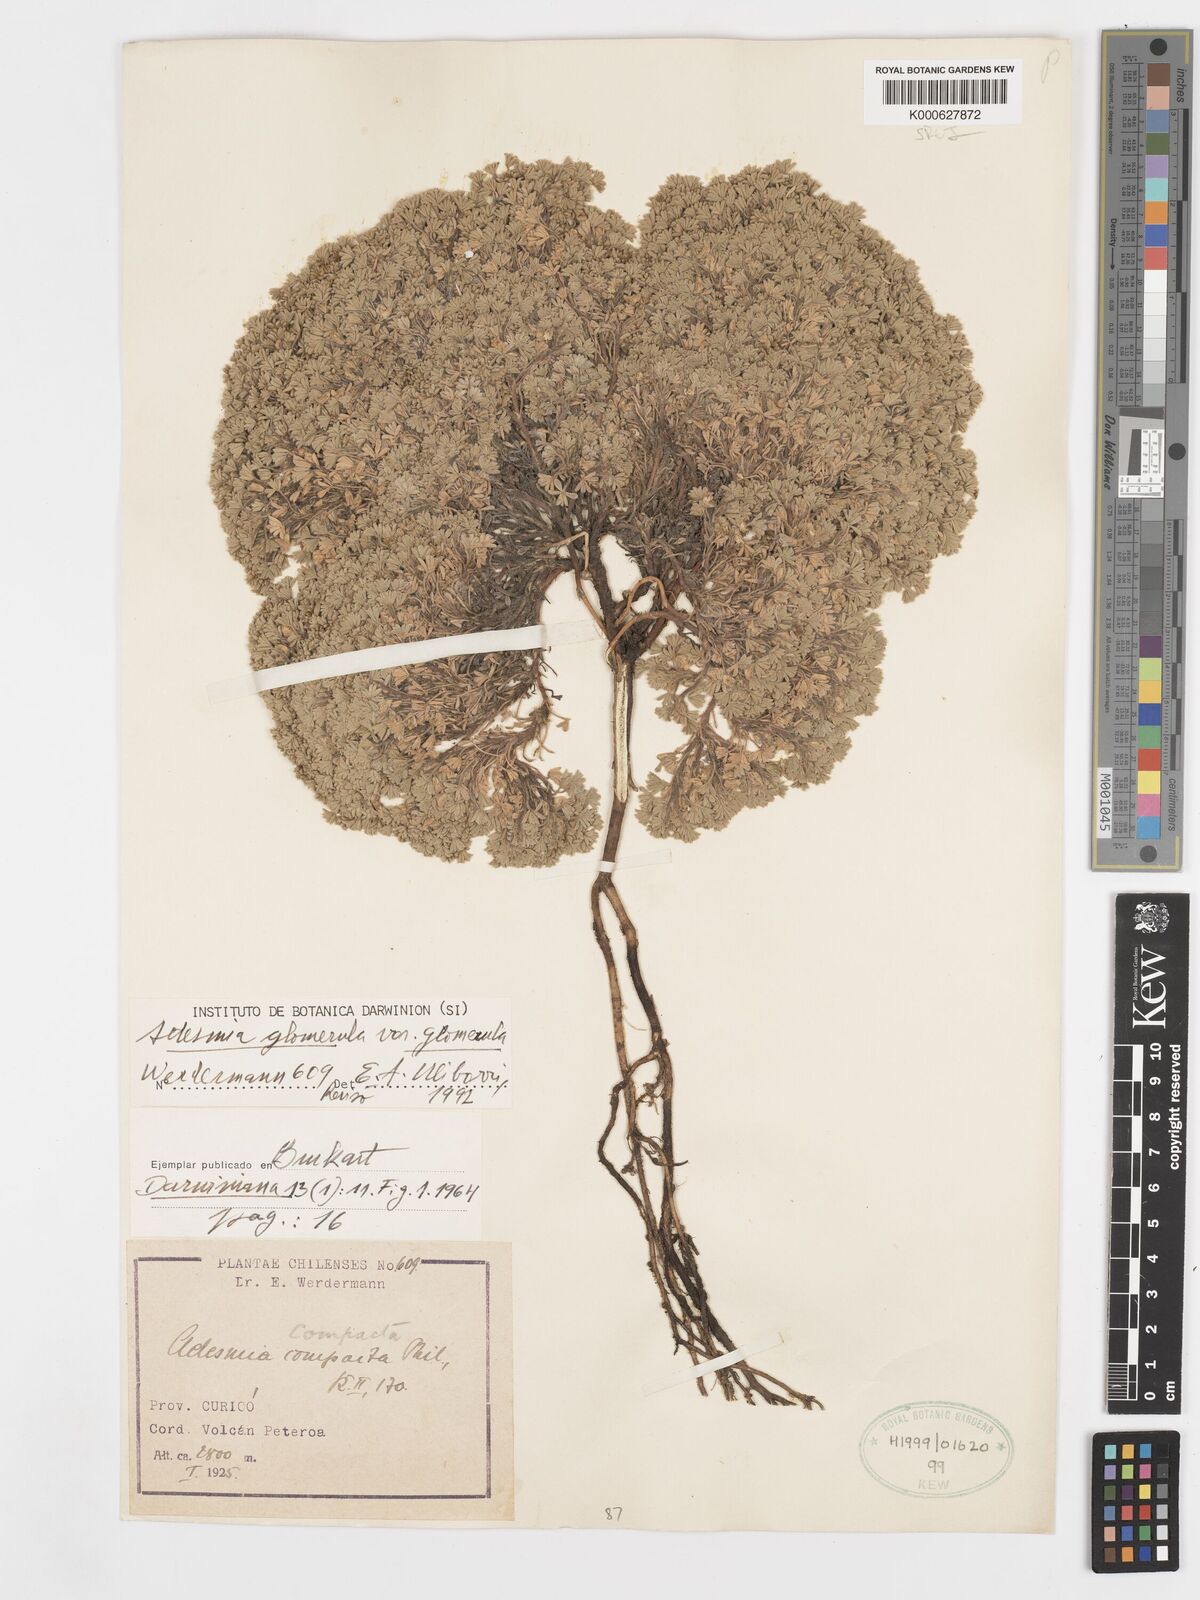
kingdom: Plantae
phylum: Tracheophyta
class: Magnoliopsida
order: Fabales
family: Fabaceae
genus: Adesmia
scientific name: Adesmia glomerula
